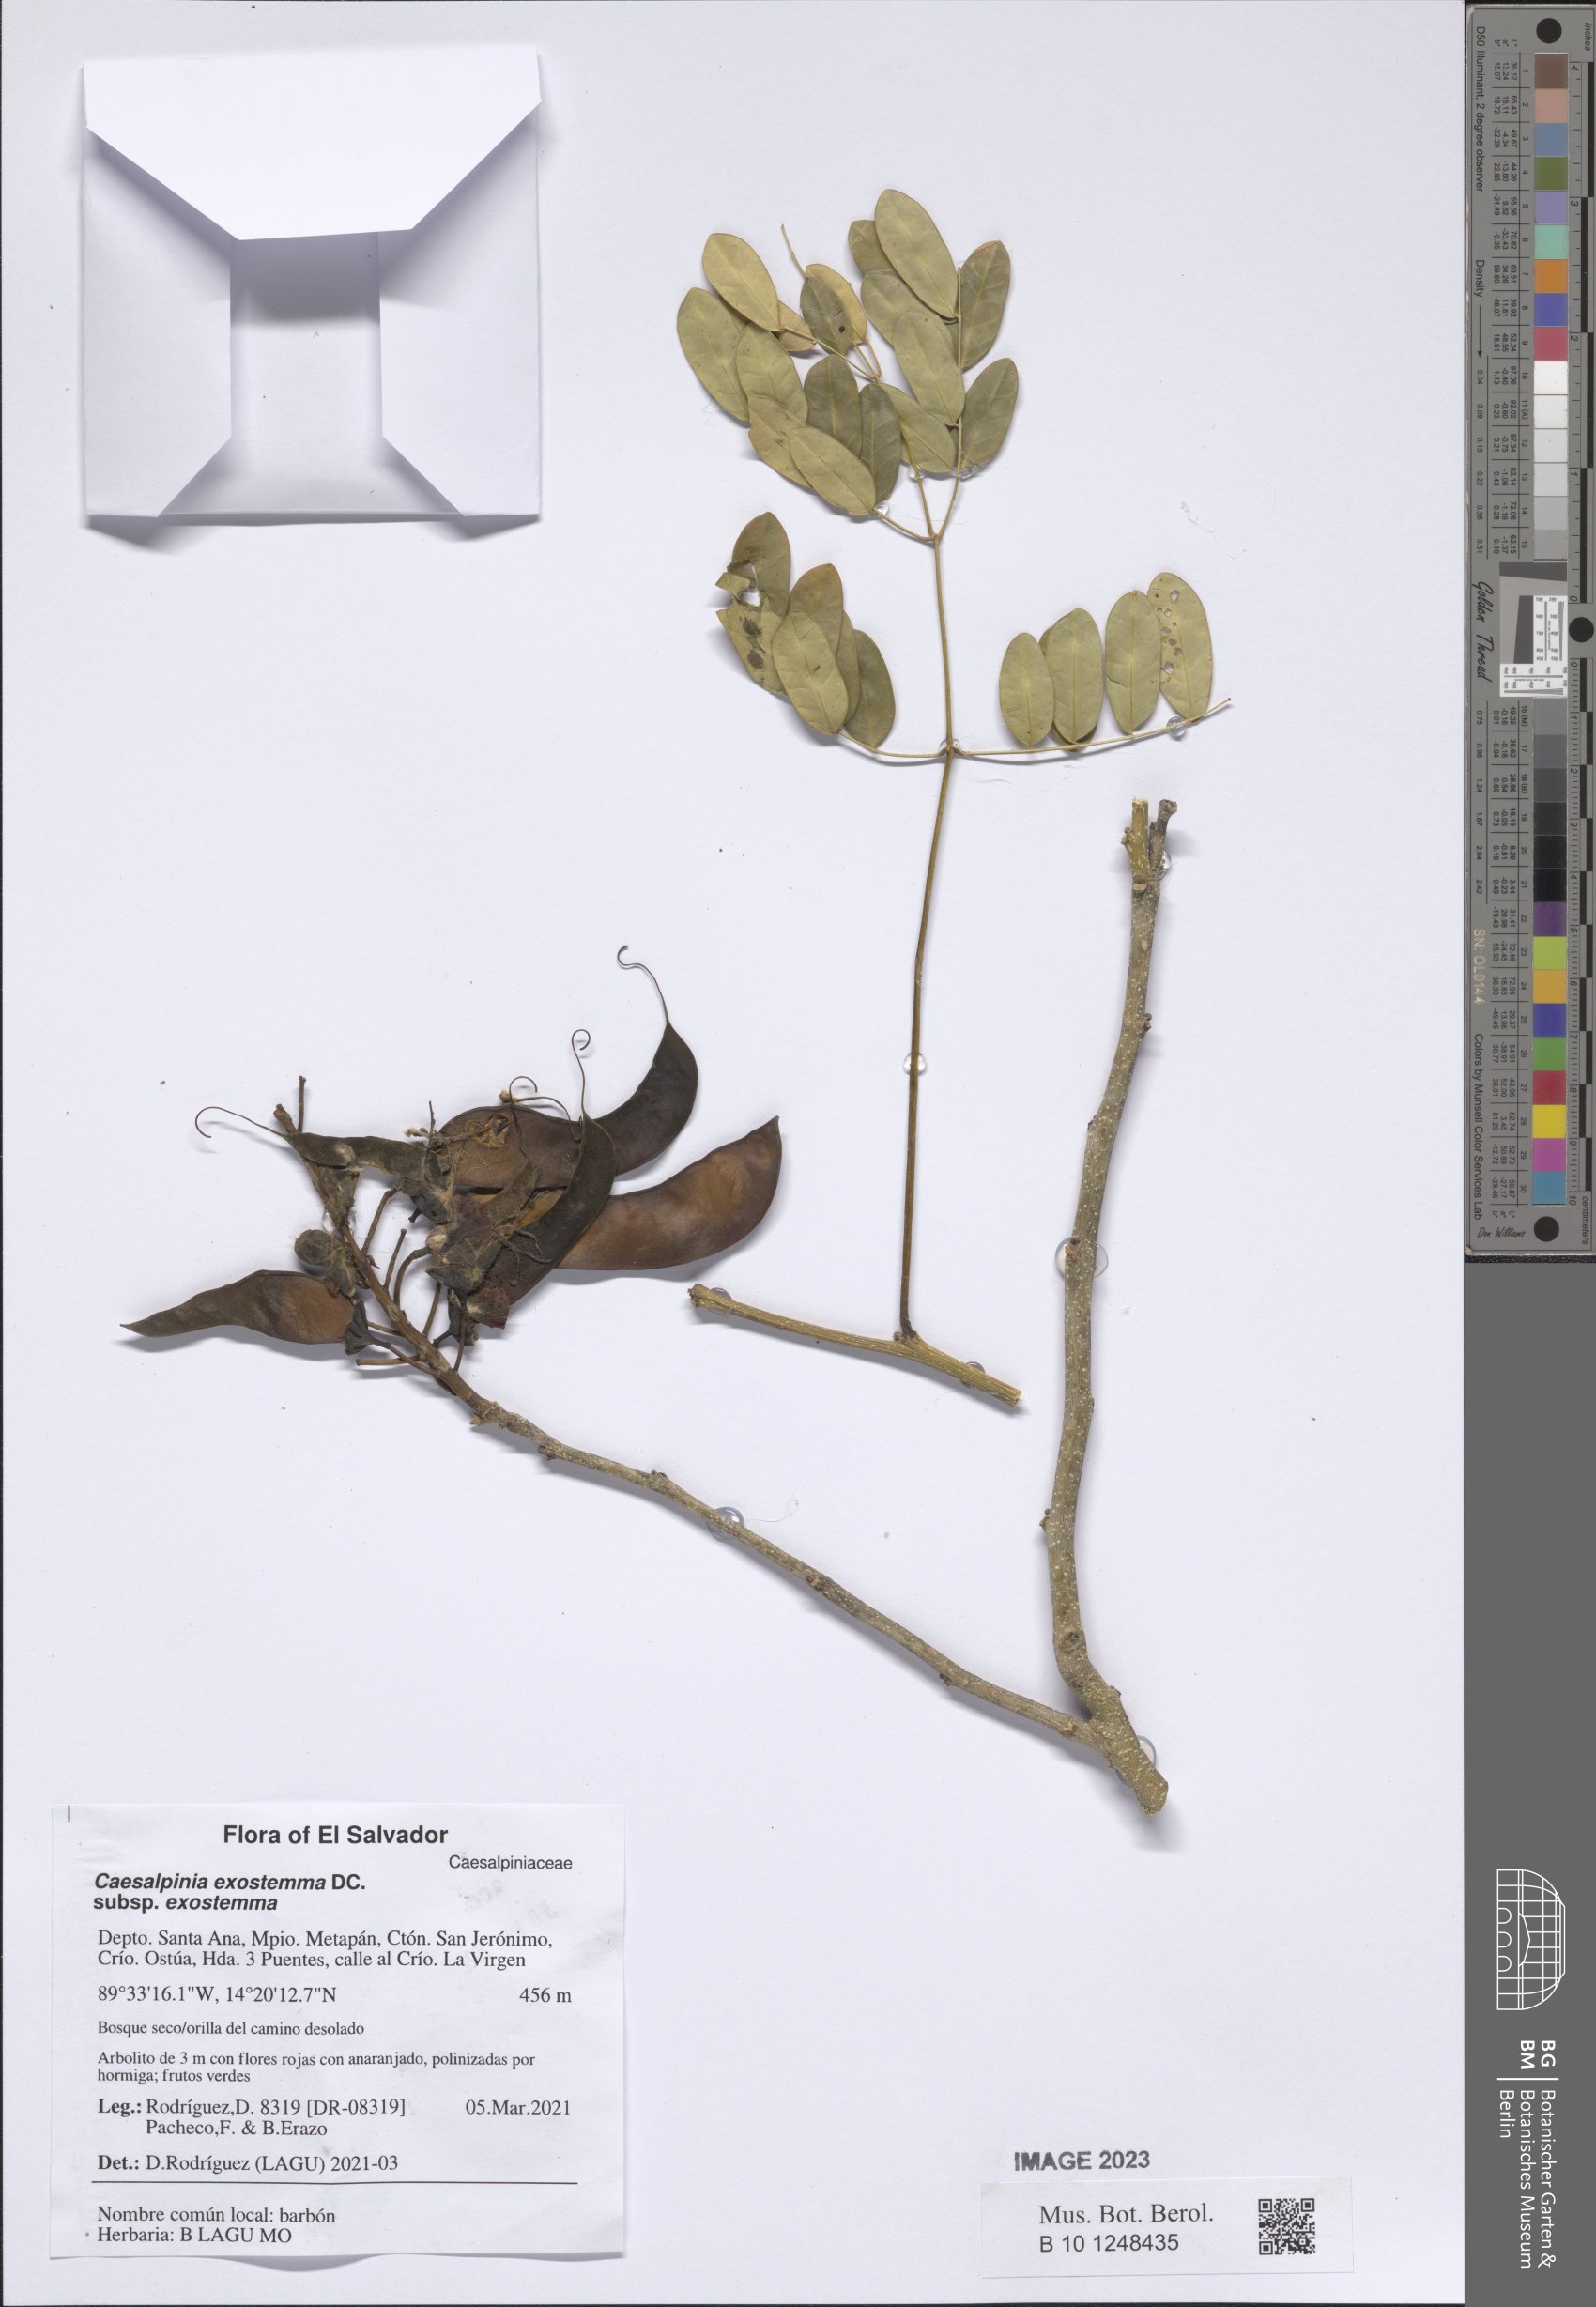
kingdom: Plantae
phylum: Tracheophyta
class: Magnoliopsida
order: Fabales
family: Fabaceae
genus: Erythrostemon
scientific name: Erythrostemon exostemma
